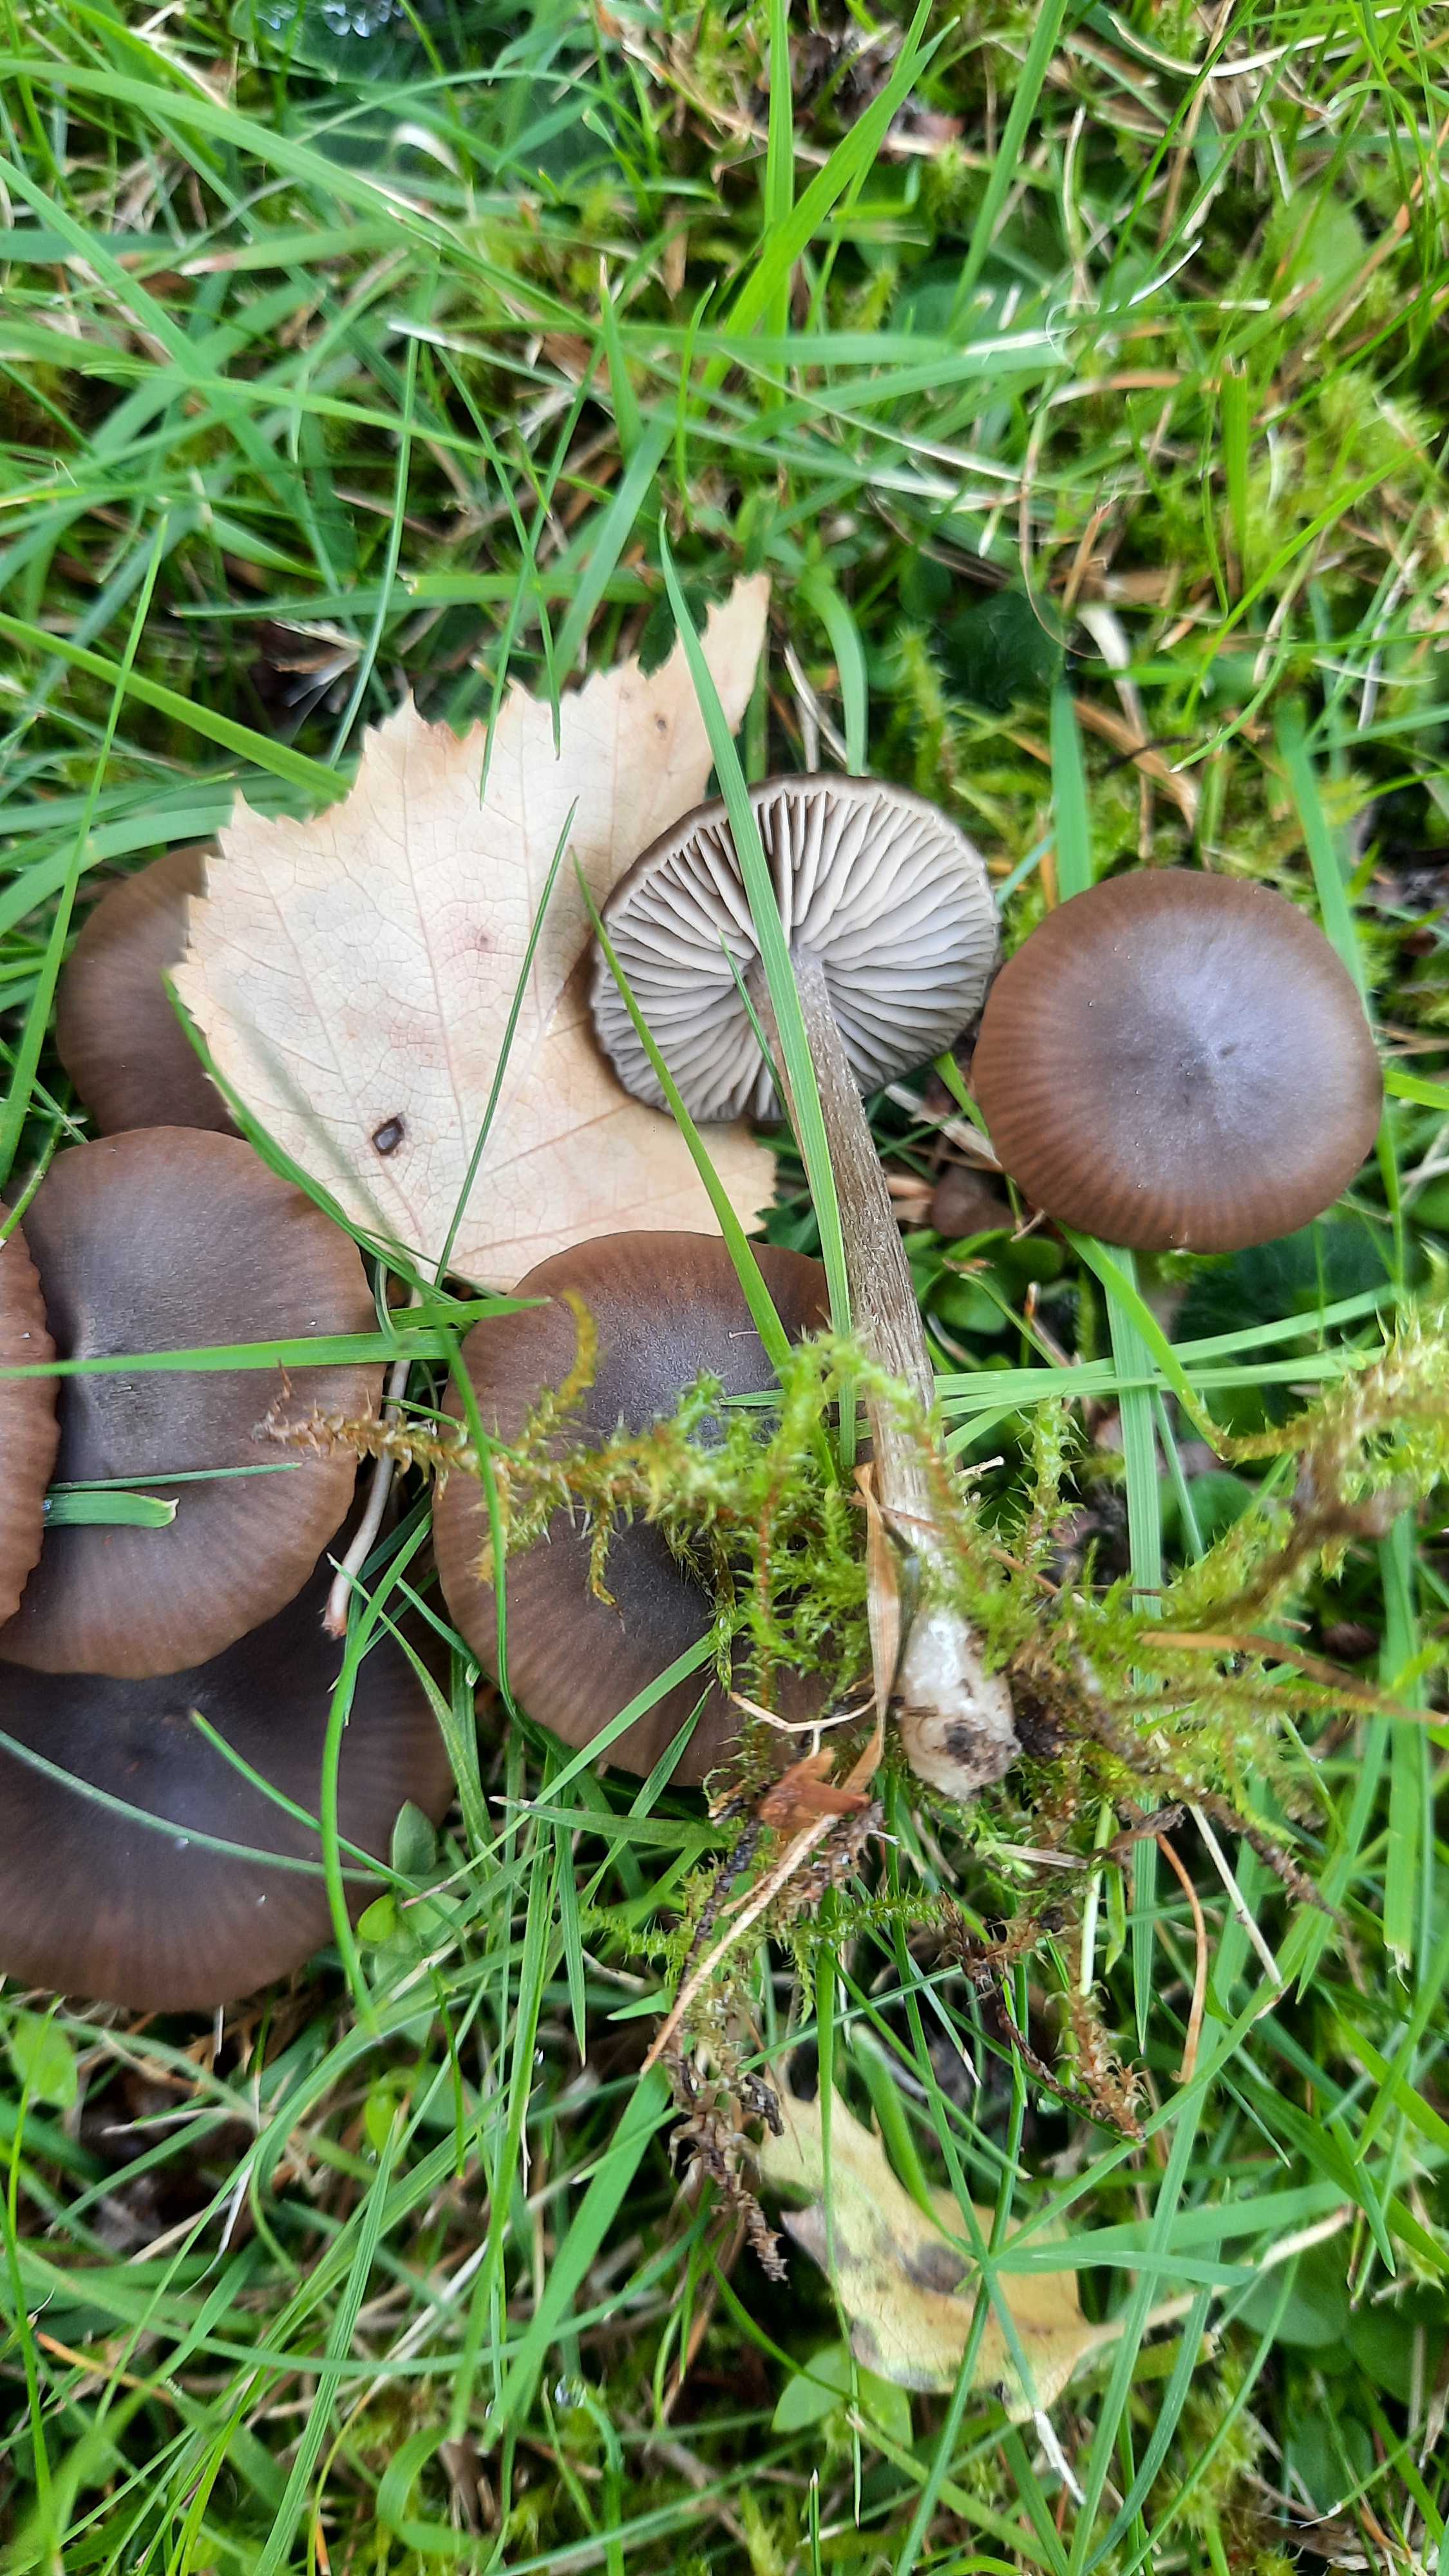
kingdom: Fungi
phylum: Basidiomycota
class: Agaricomycetes
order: Agaricales
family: Entolomataceae
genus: Entoloma
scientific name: Entoloma
